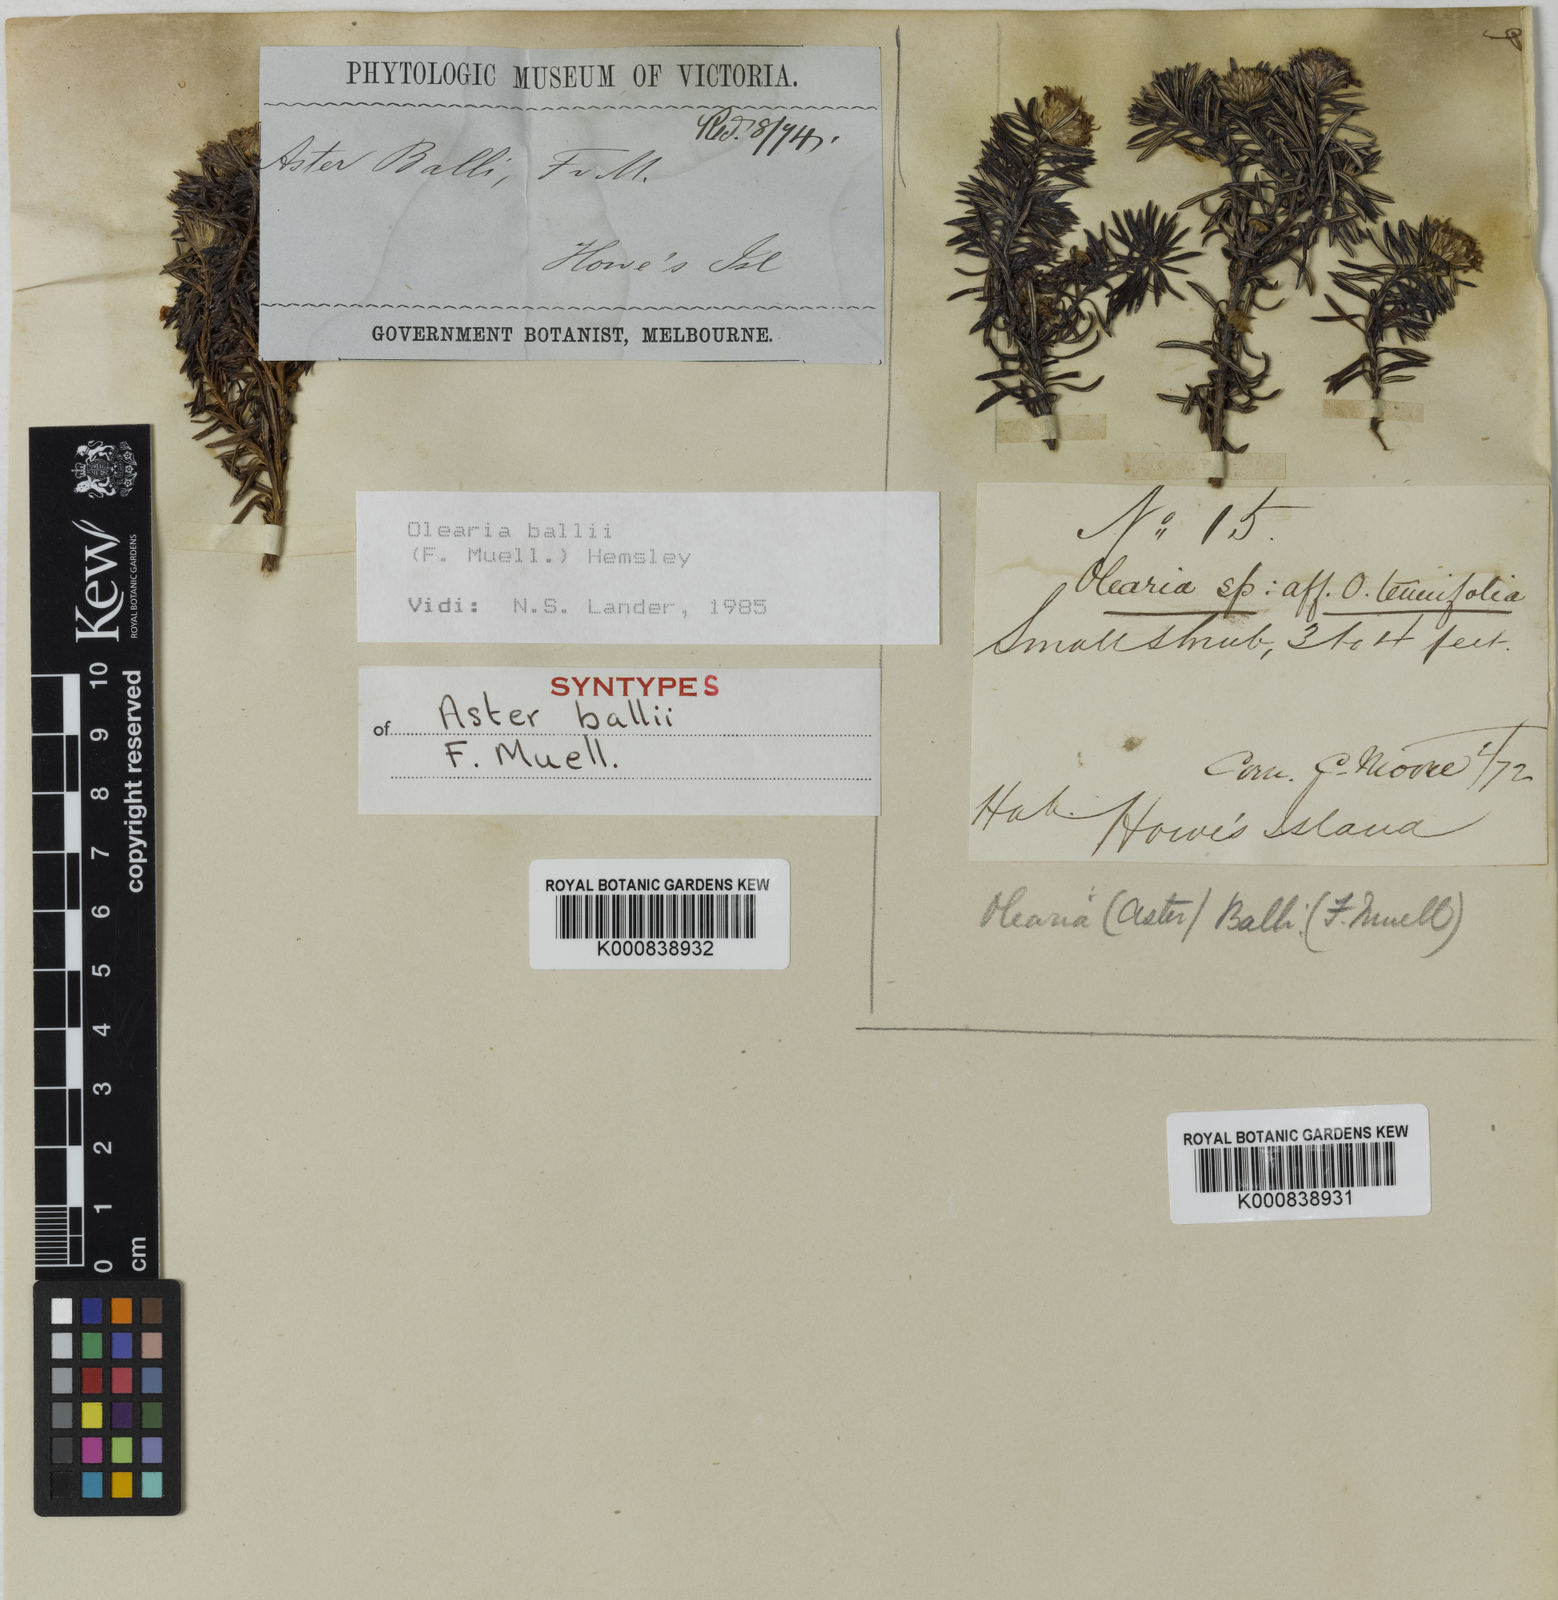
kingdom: Plantae
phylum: Tracheophyta
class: Magnoliopsida
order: Asterales
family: Asteraceae
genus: Olearia
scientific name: Olearia ballii
